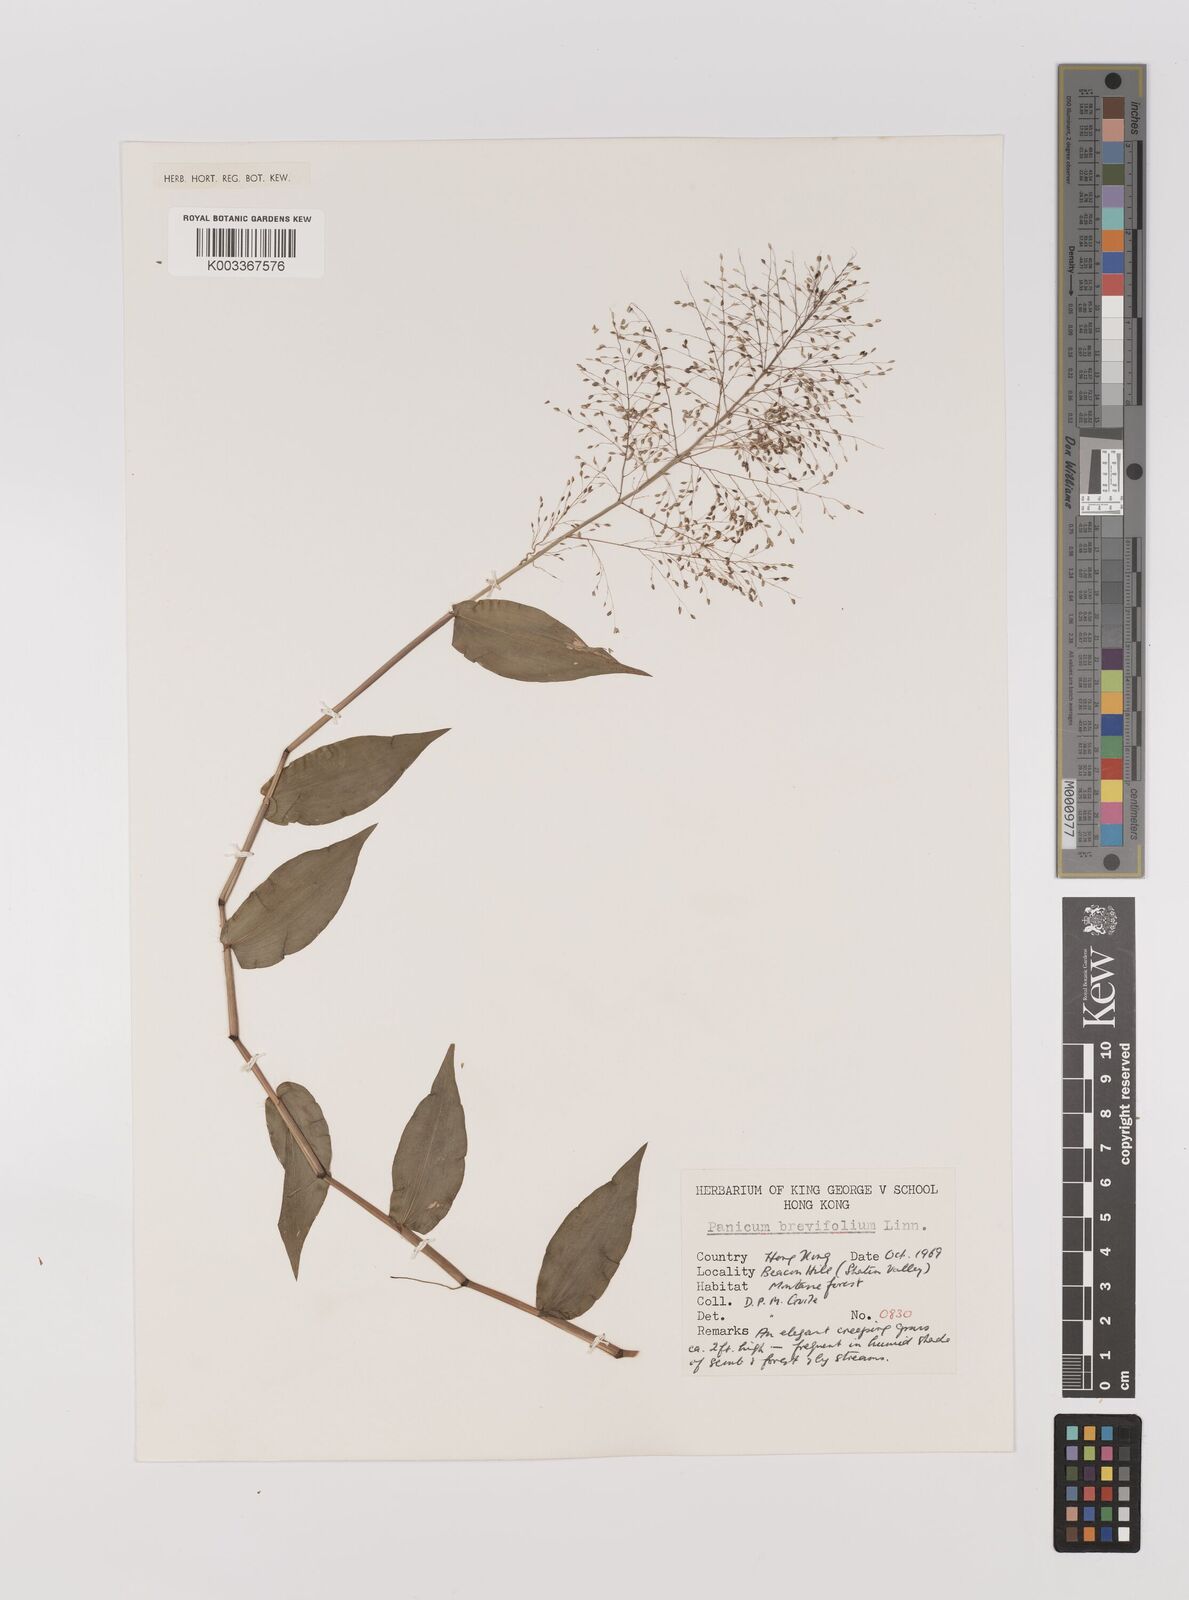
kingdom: Plantae
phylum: Tracheophyta
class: Liliopsida
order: Poales
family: Poaceae
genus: Panicum
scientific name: Panicum brevifolium
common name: Shortleaf panic grass
